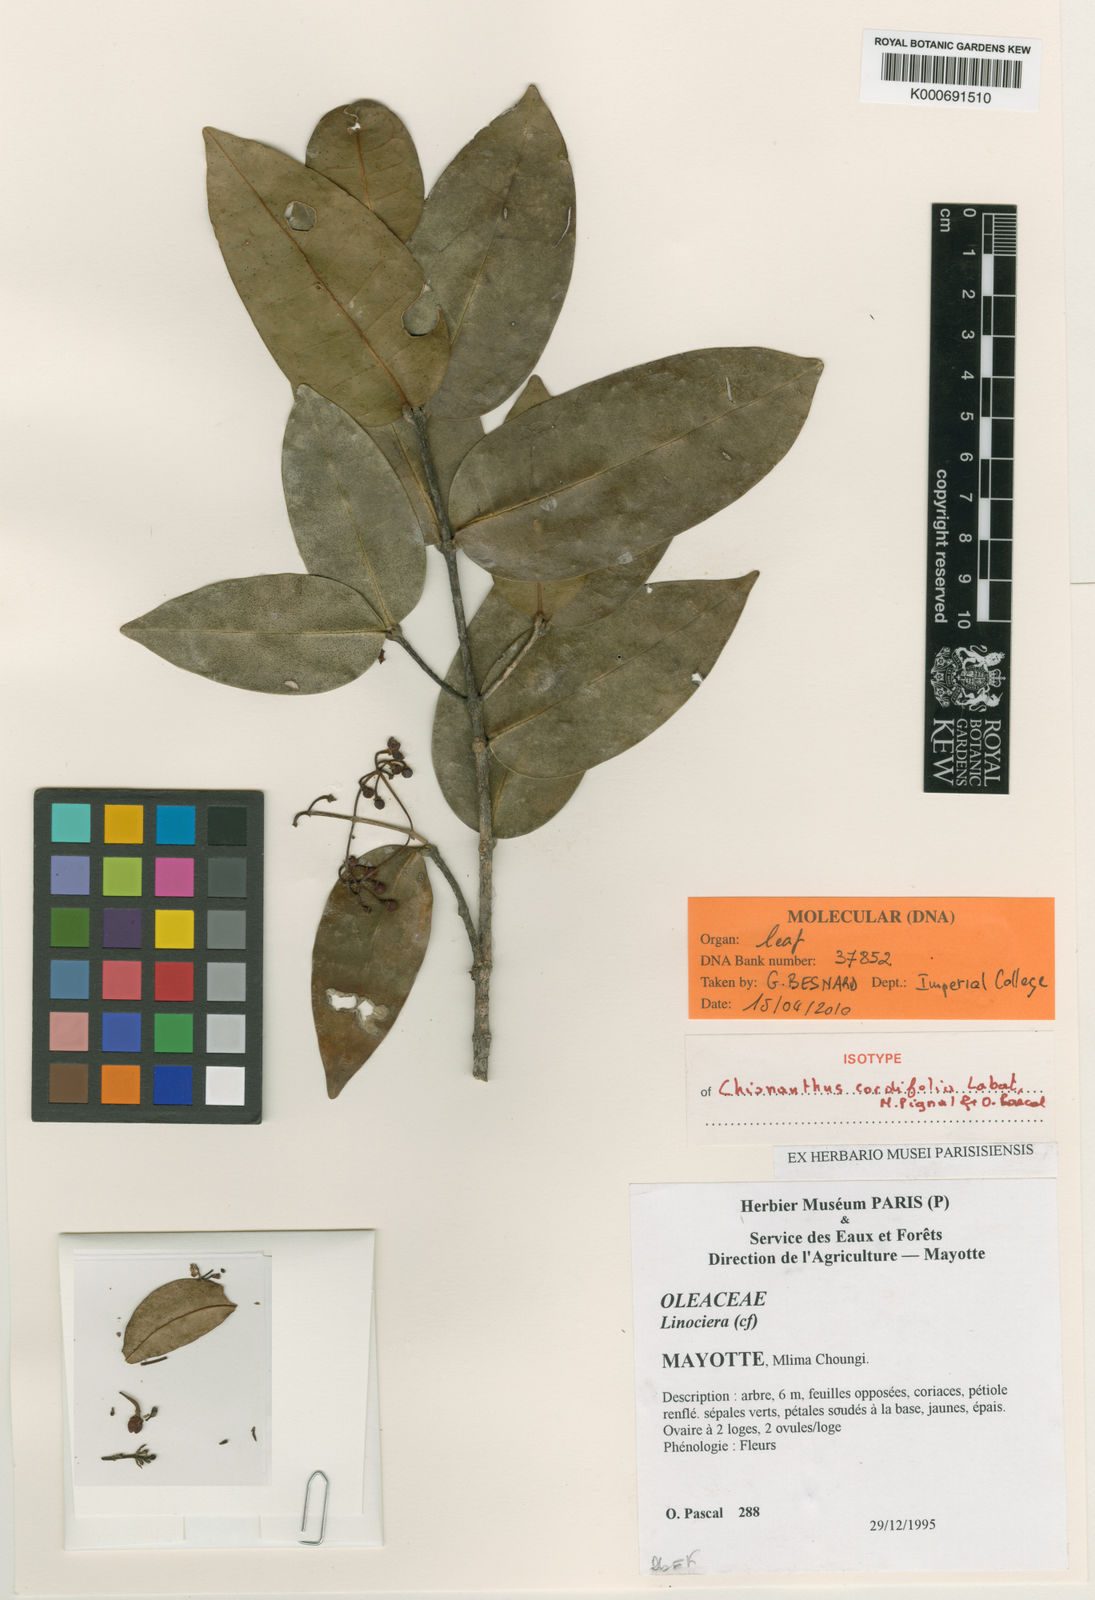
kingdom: Plantae
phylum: Tracheophyta
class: Magnoliopsida
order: Lamiales
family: Oleaceae
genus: Noronhia
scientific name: Noronhia cordifolia
